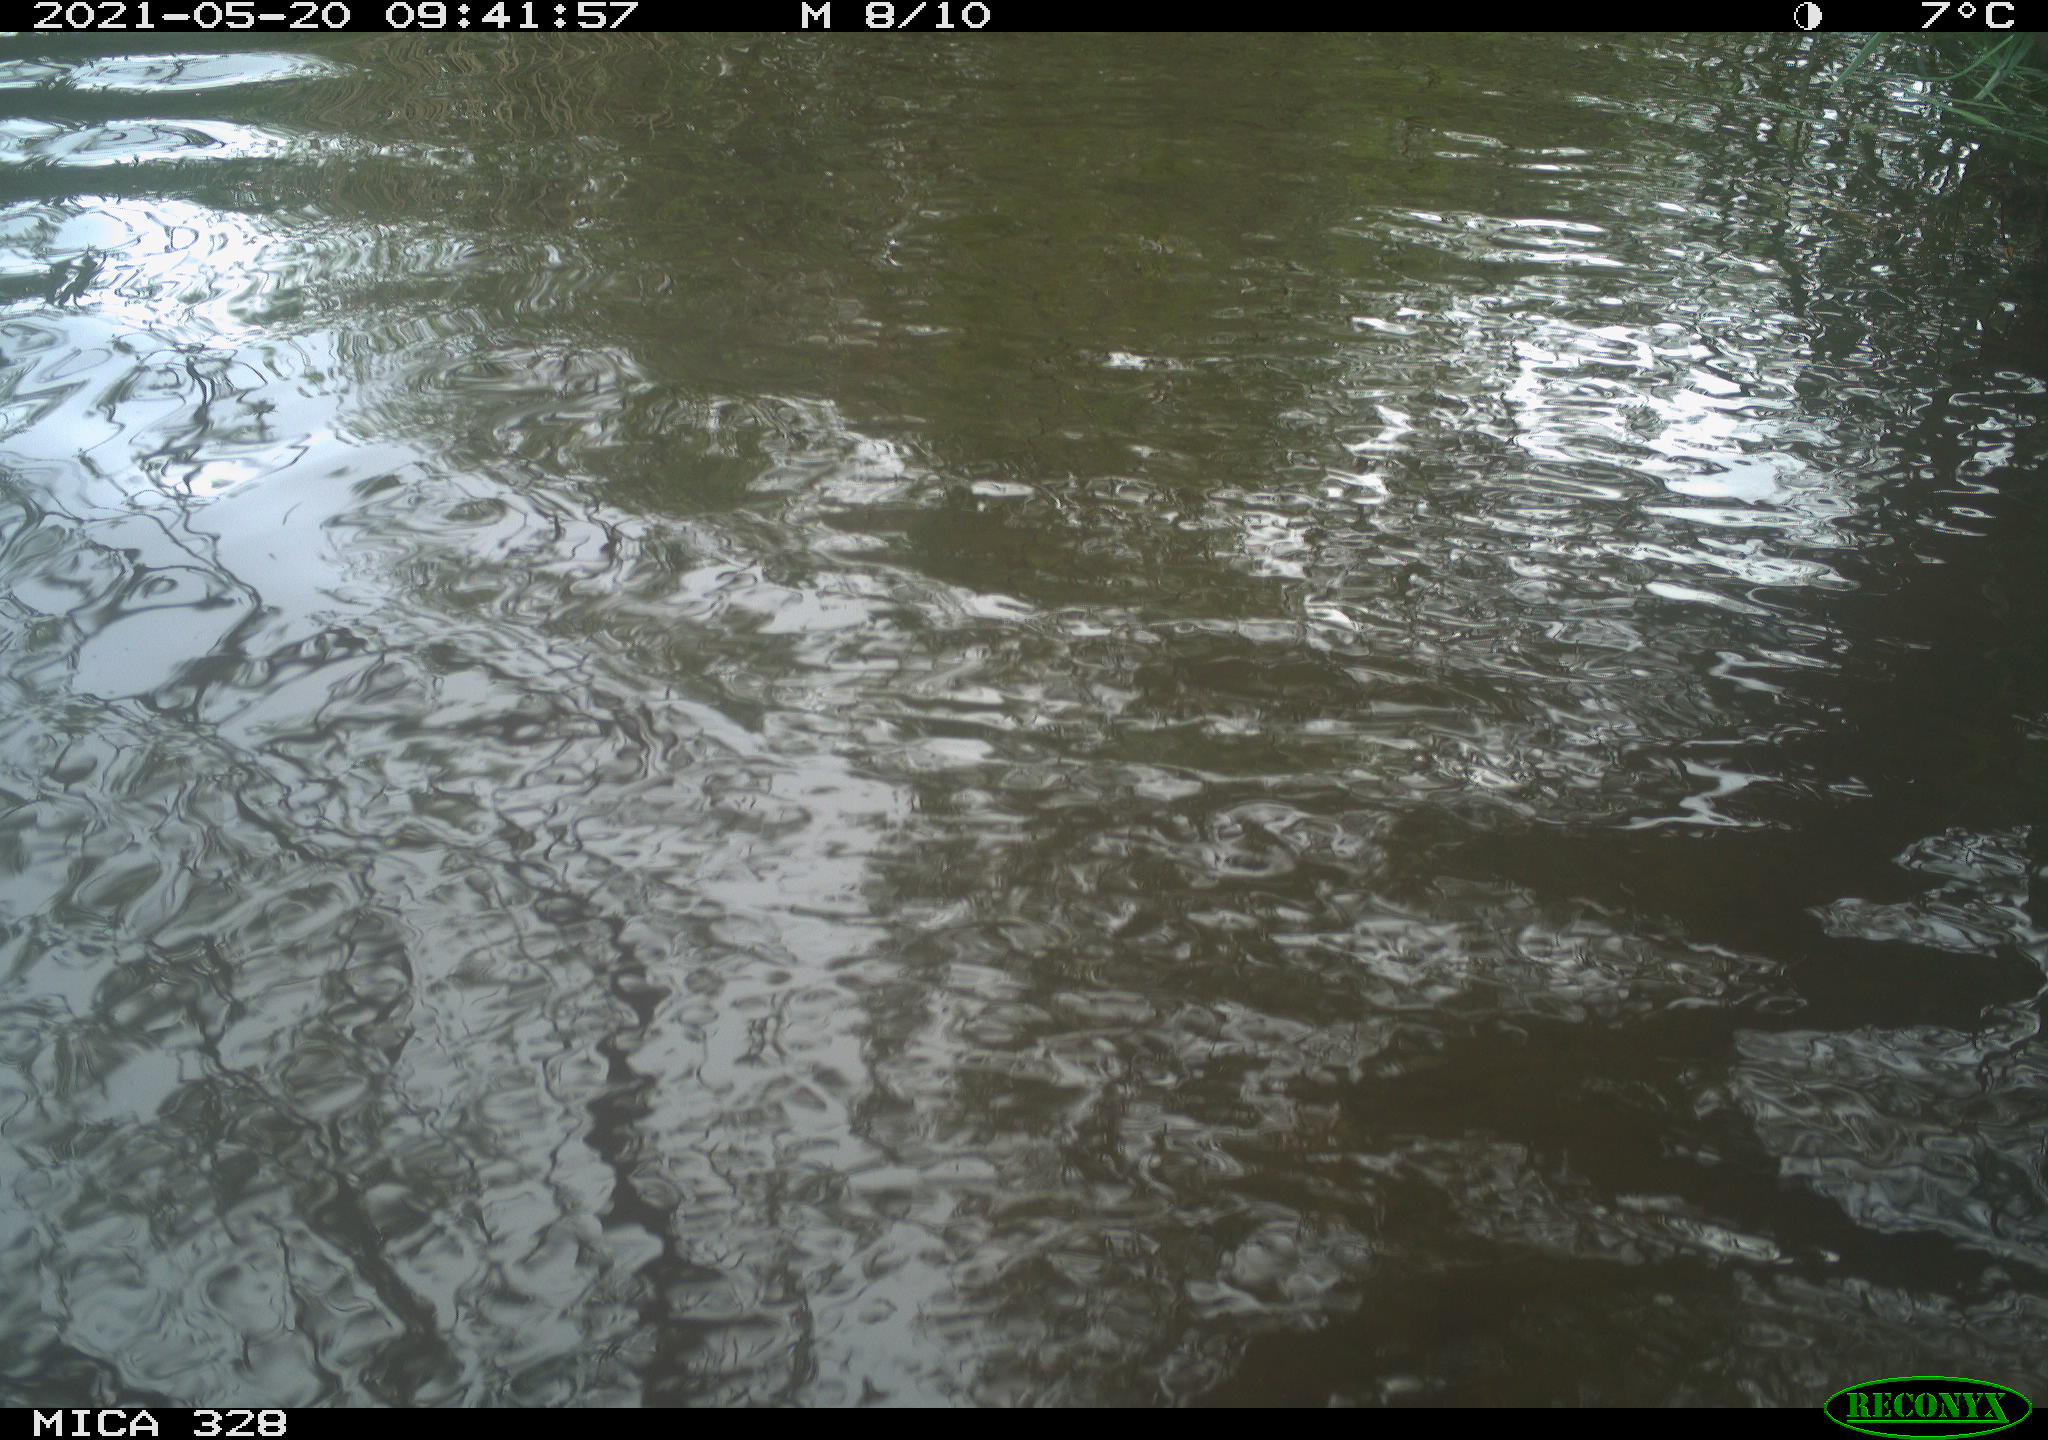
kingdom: Animalia
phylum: Chordata
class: Mammalia
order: Rodentia
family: Cricetidae
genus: Ondatra
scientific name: Ondatra zibethicus
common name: Muskrat
